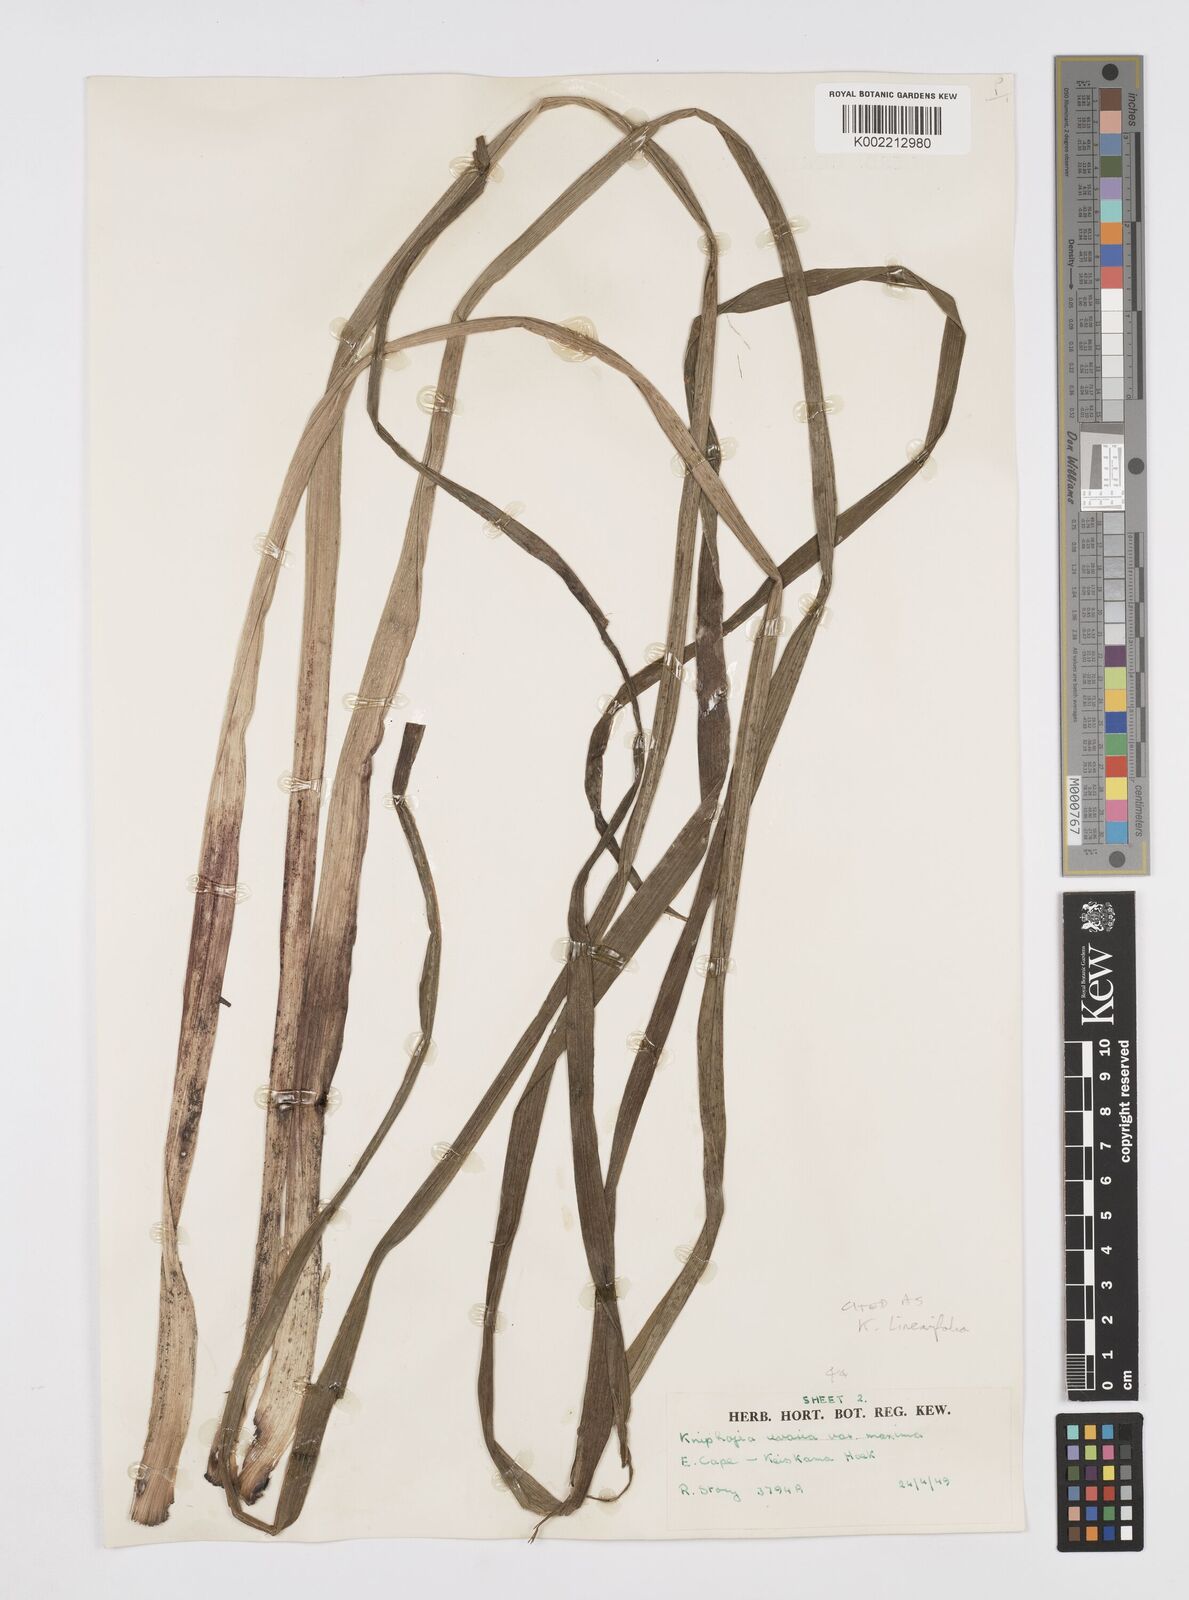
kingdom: Plantae
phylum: Tracheophyta
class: Liliopsida
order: Asparagales
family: Asphodelaceae
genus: Kniphofia
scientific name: Kniphofia linearifolia
